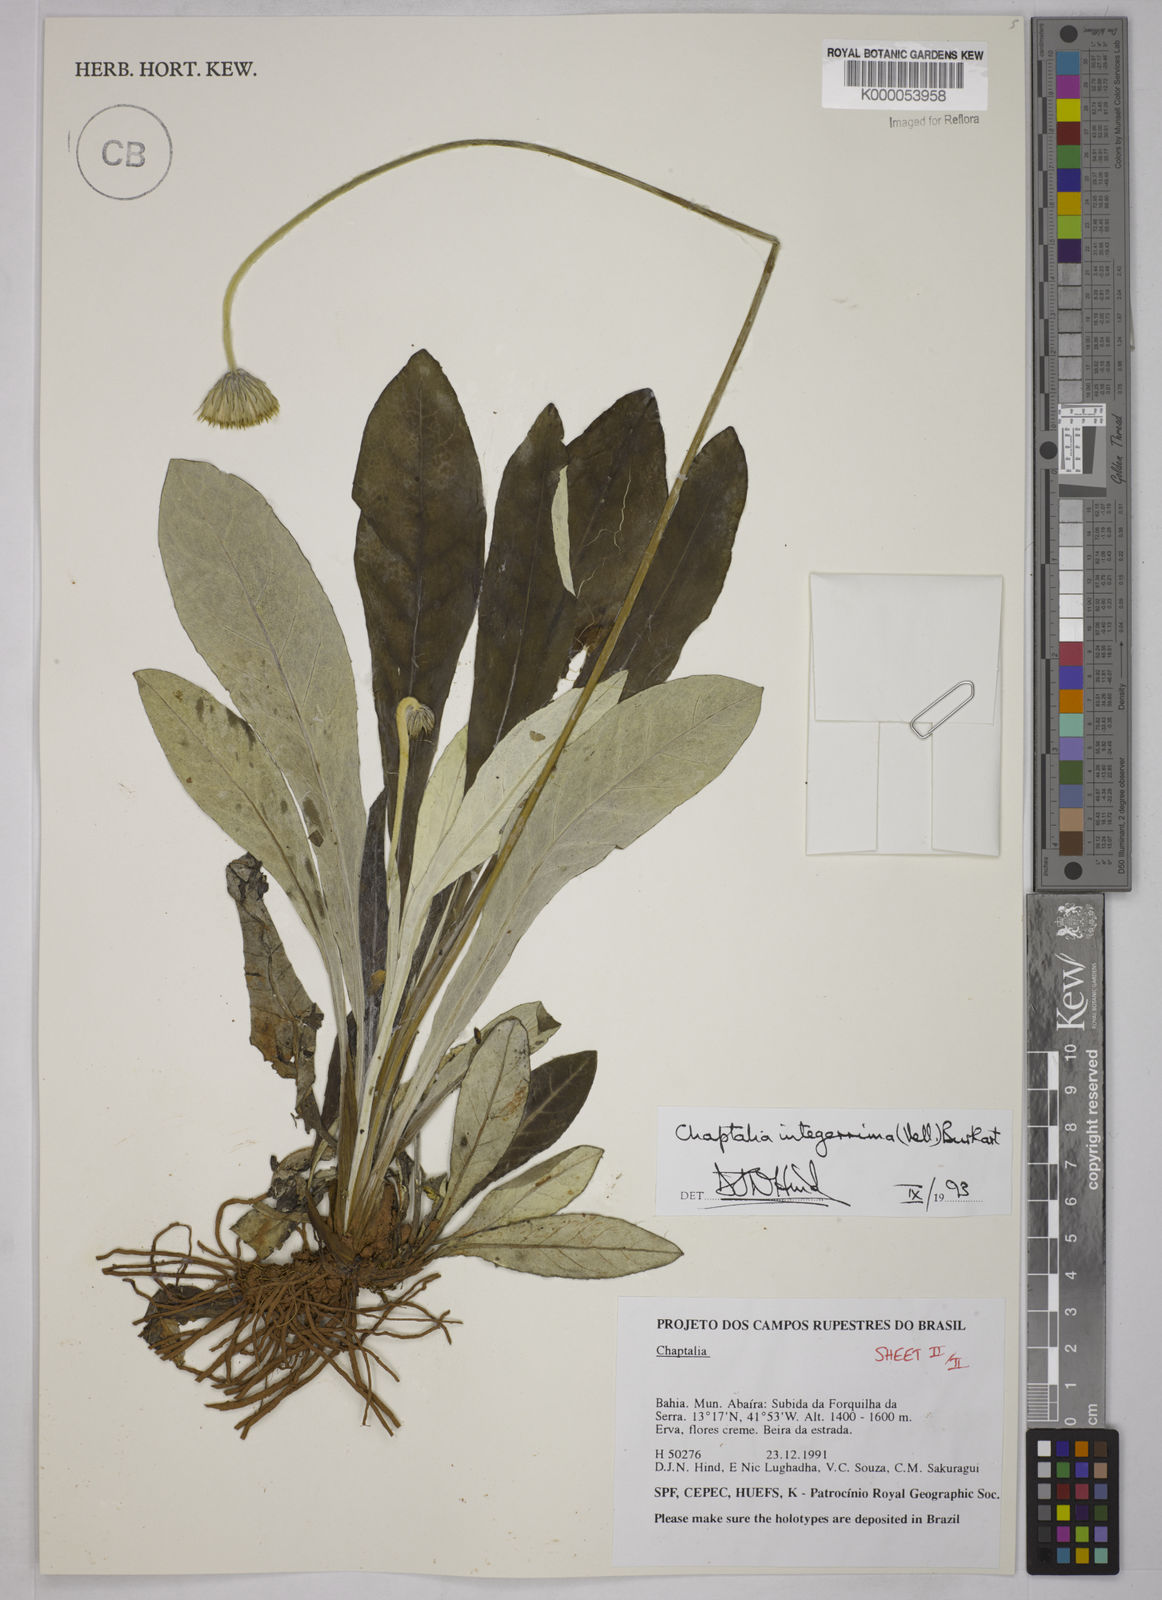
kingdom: Plantae
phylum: Tracheophyta
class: Magnoliopsida
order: Asterales
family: Asteraceae
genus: Chaptalia
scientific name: Chaptalia integerrima
